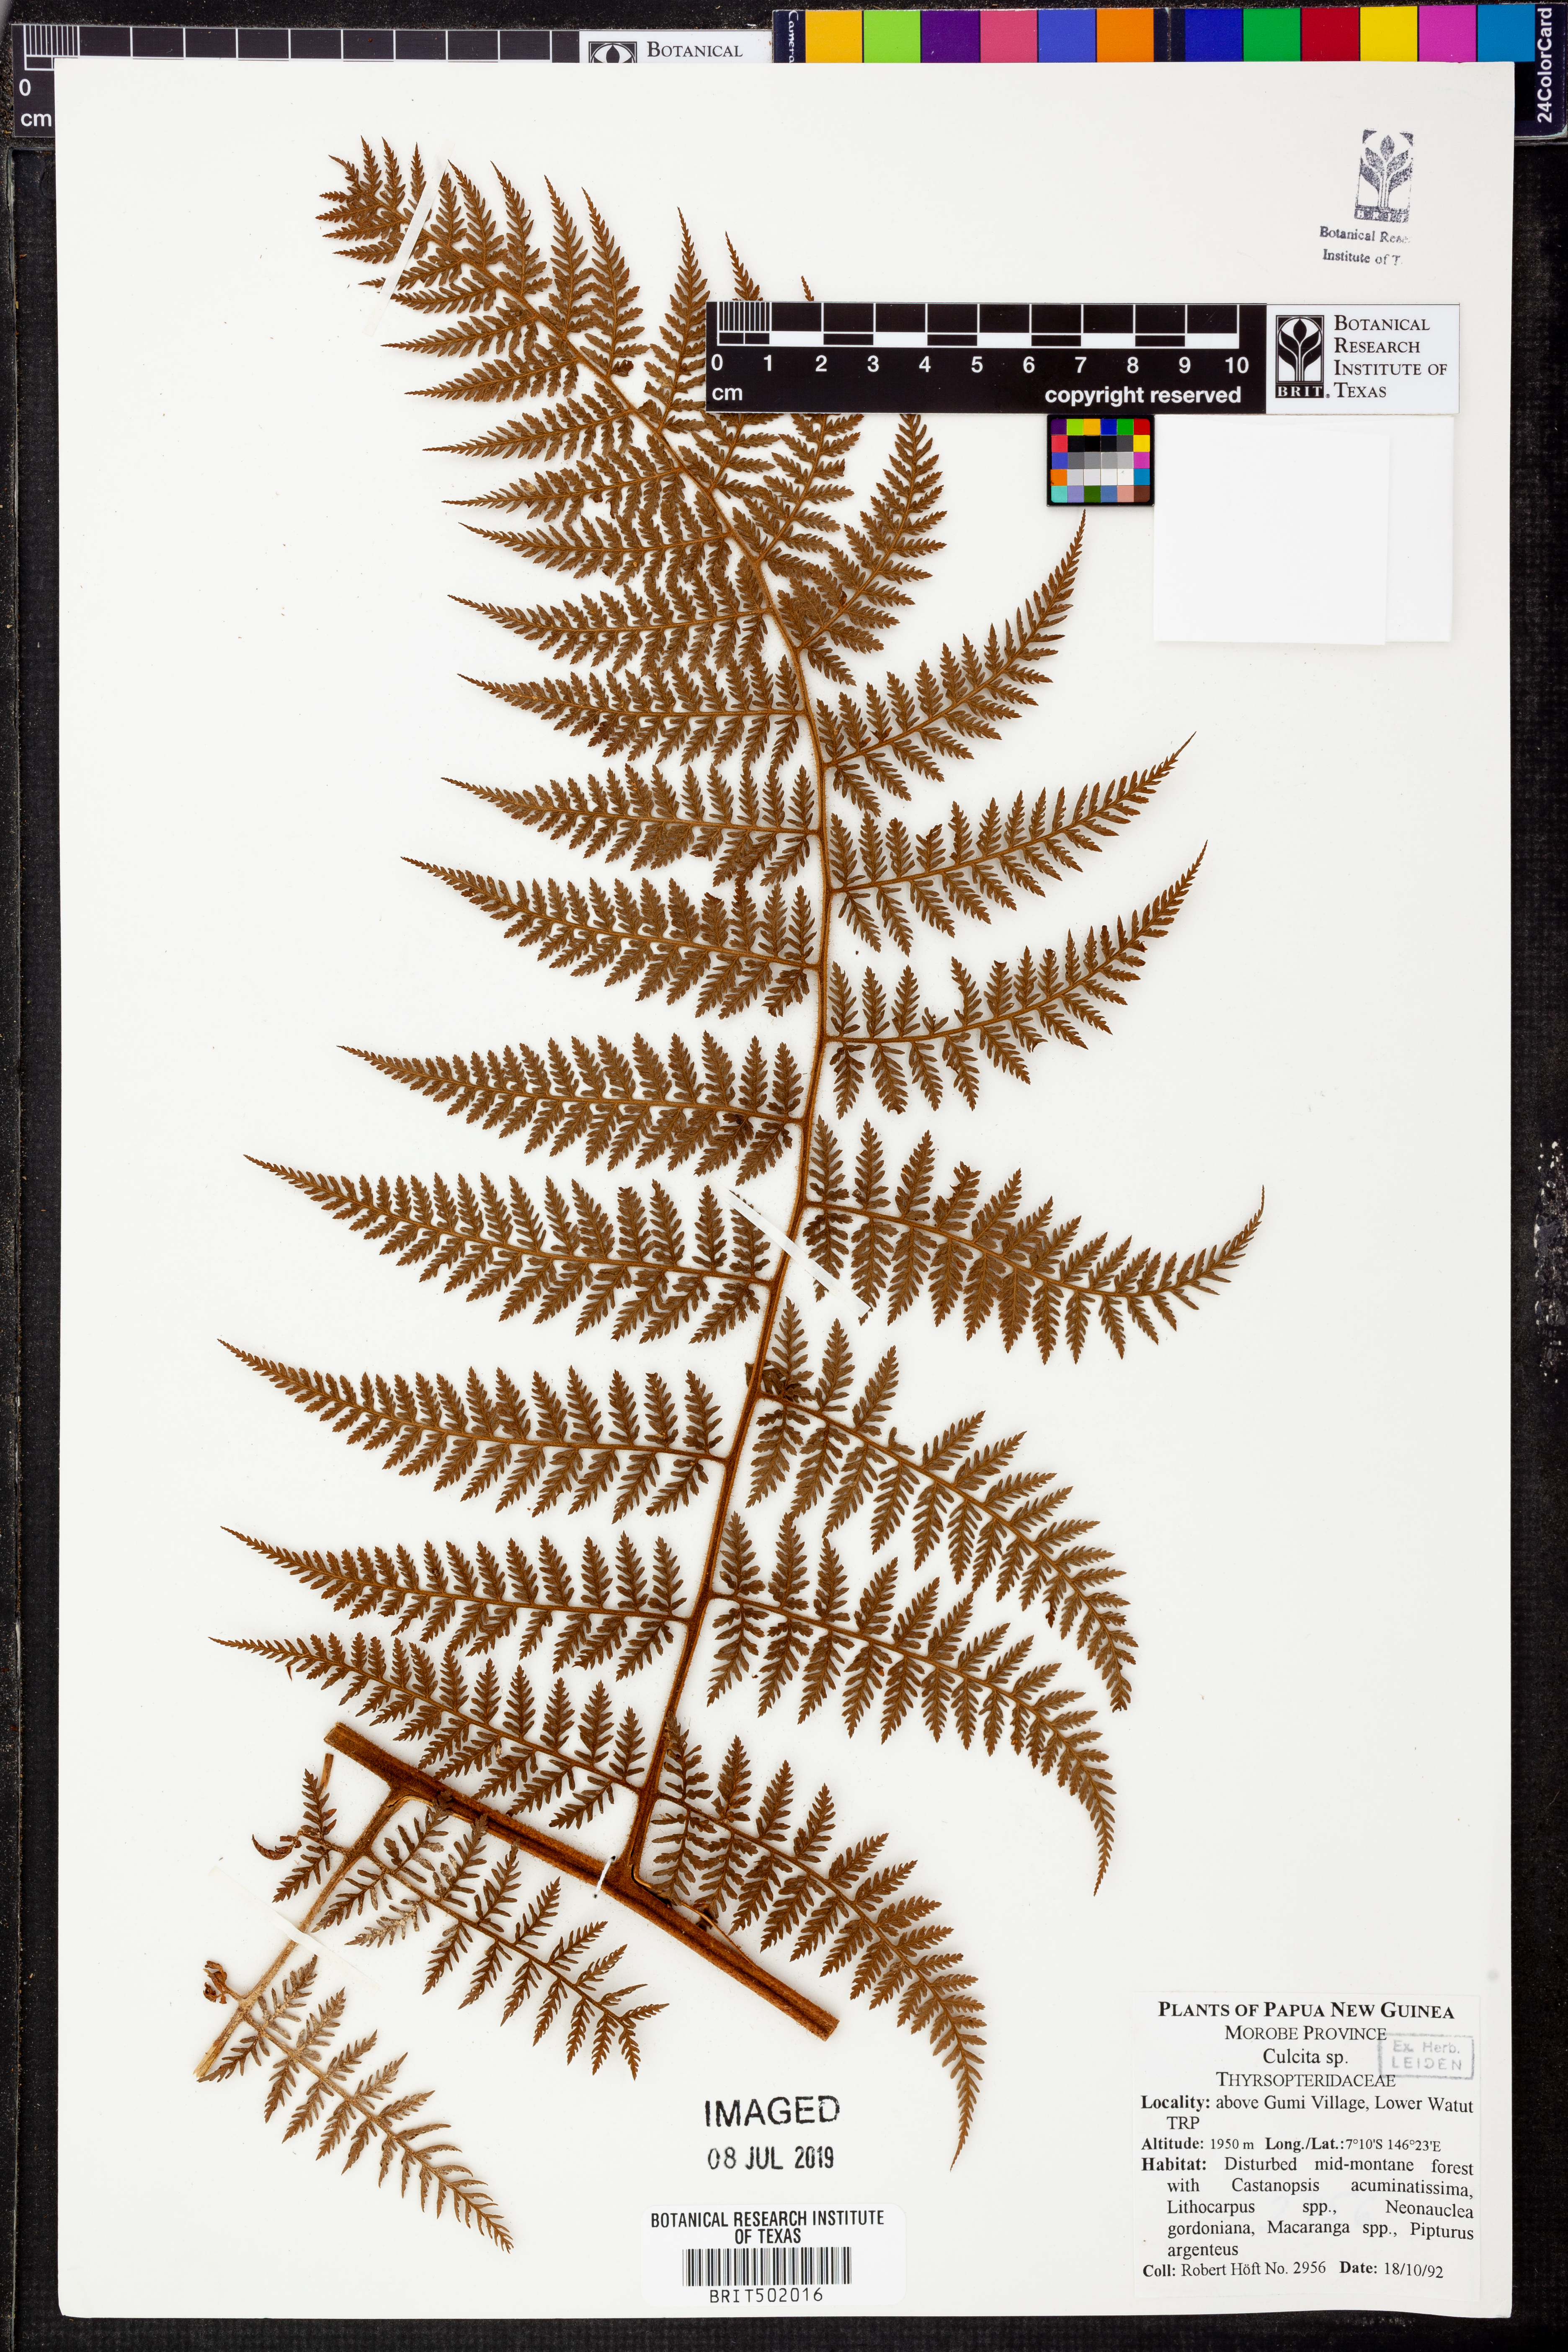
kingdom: Plantae
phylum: Tracheophyta
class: Polypodiopsida
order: Cyatheales
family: Culcitaceae
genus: Culcita
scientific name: Culcita
